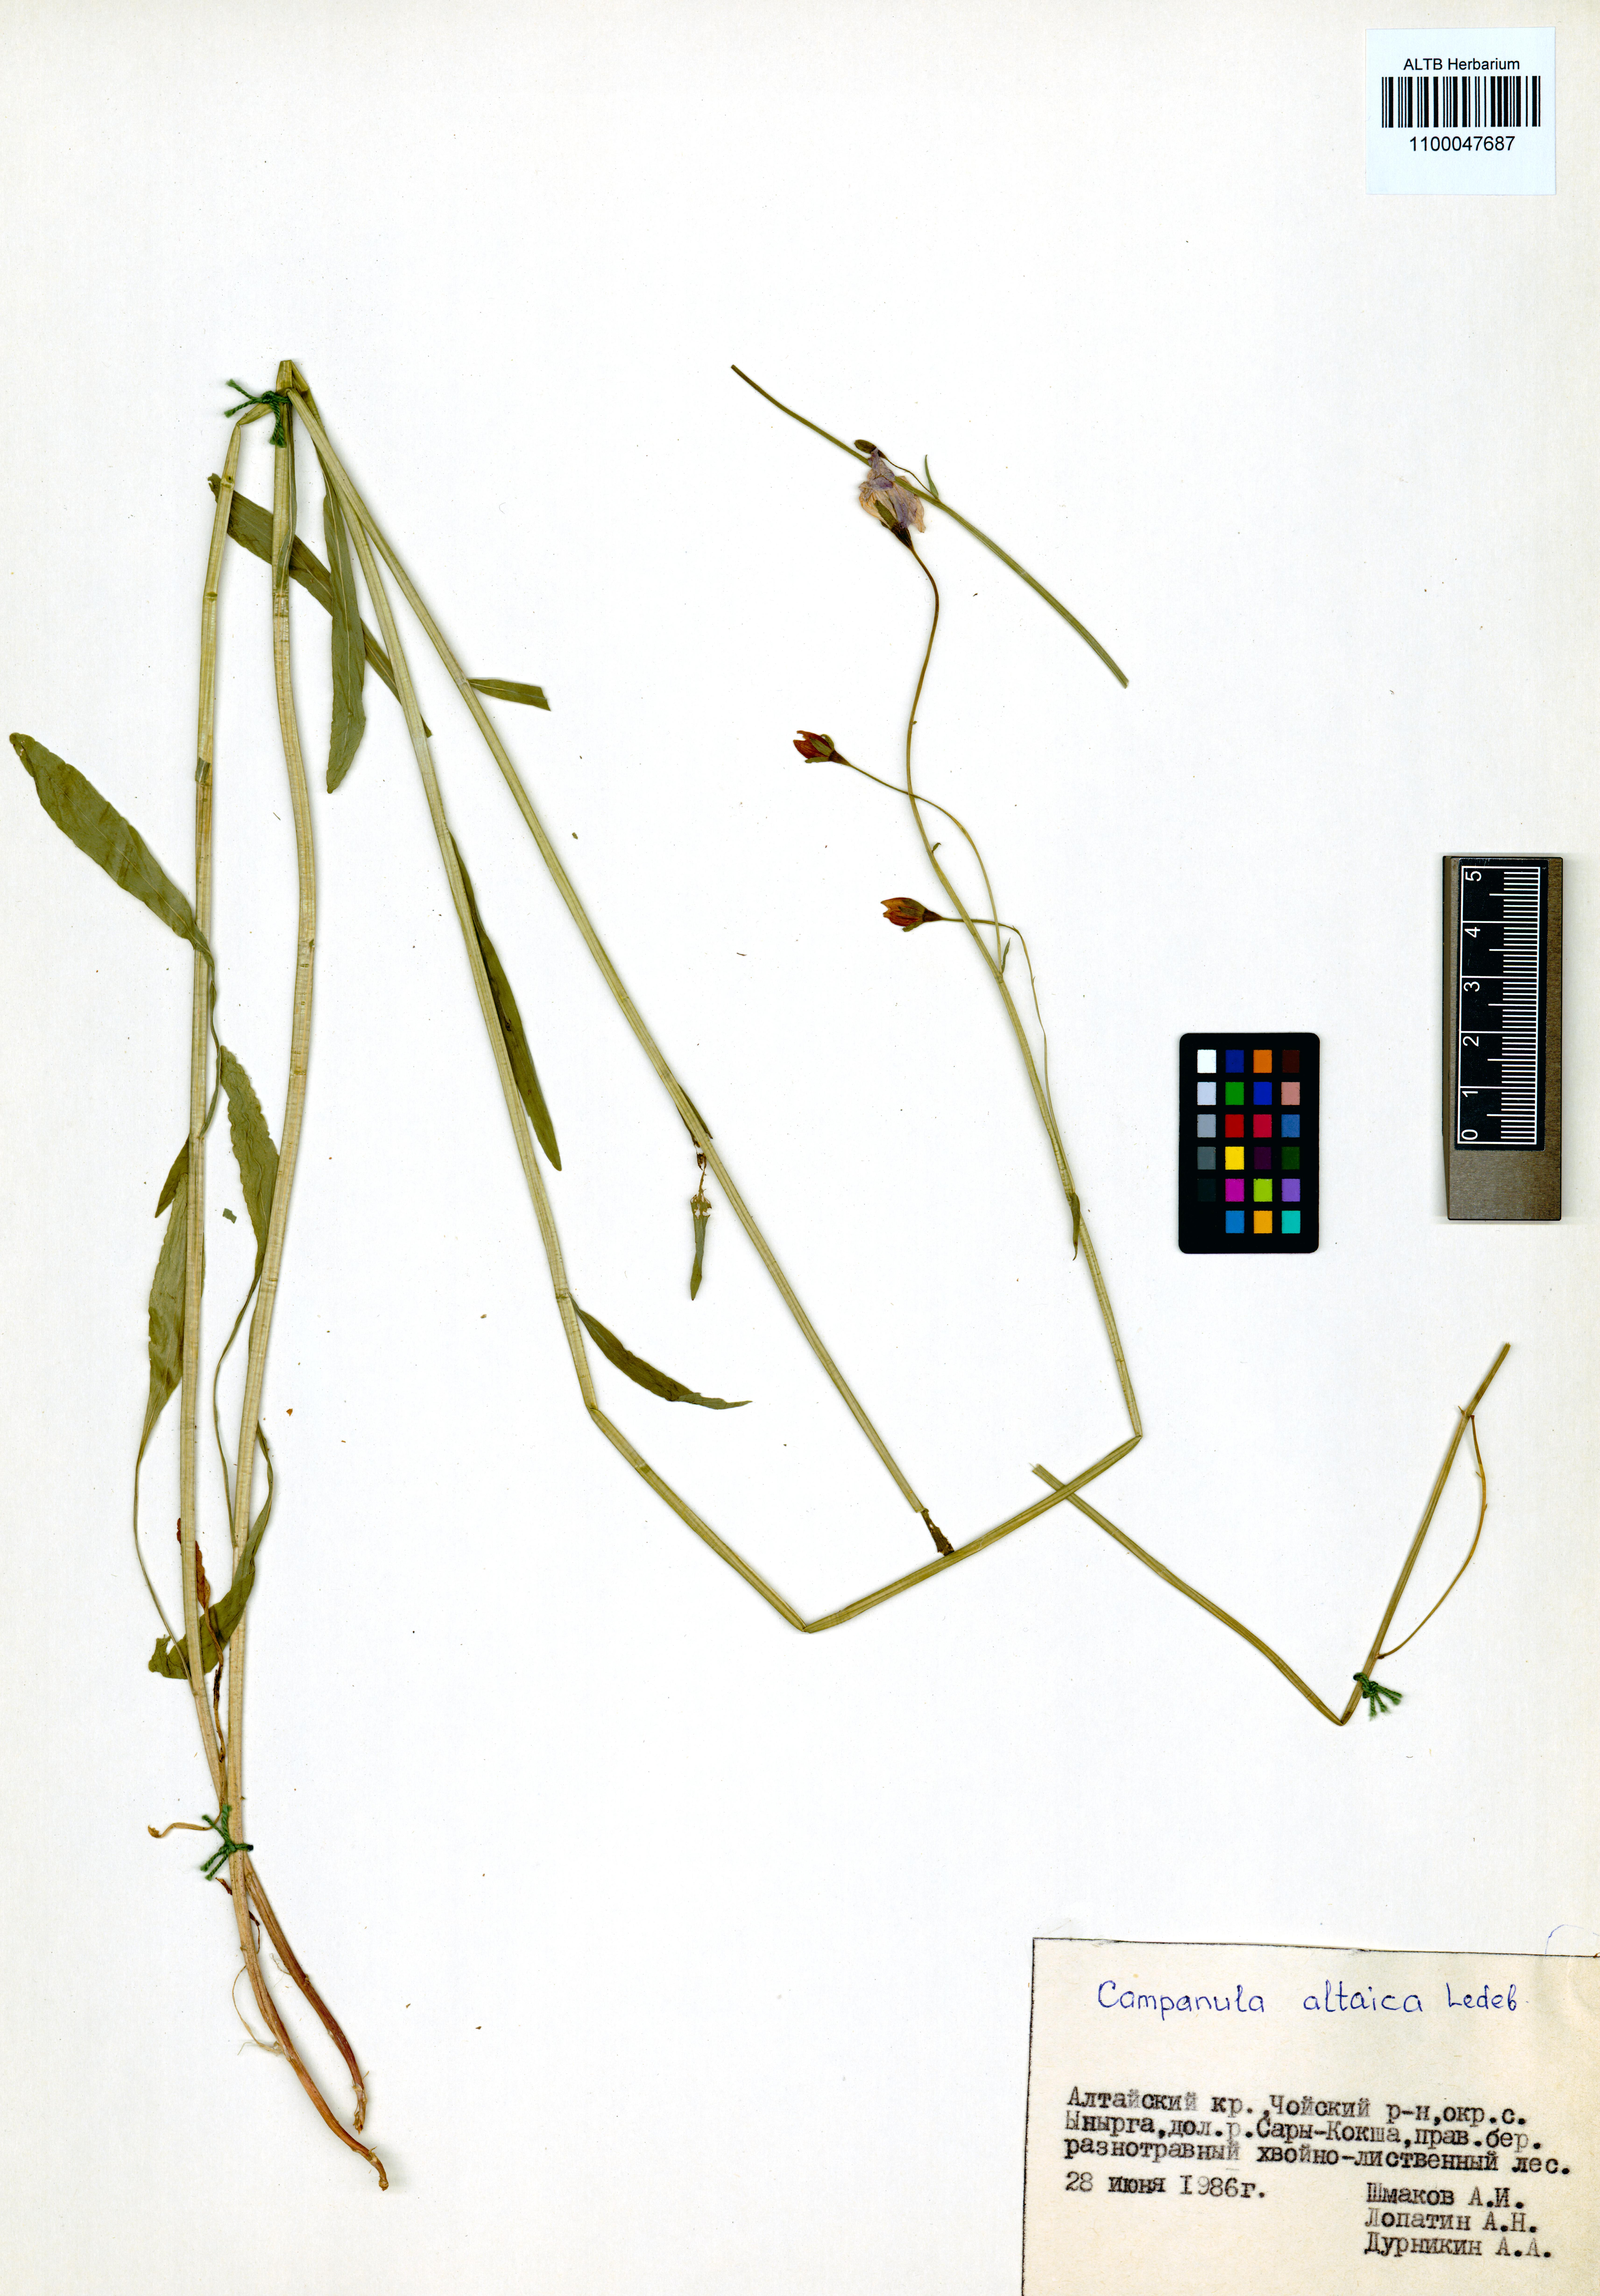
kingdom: Plantae
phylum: Tracheophyta
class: Magnoliopsida
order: Asterales
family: Campanulaceae
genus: Campanula
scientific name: Campanula stevenii
